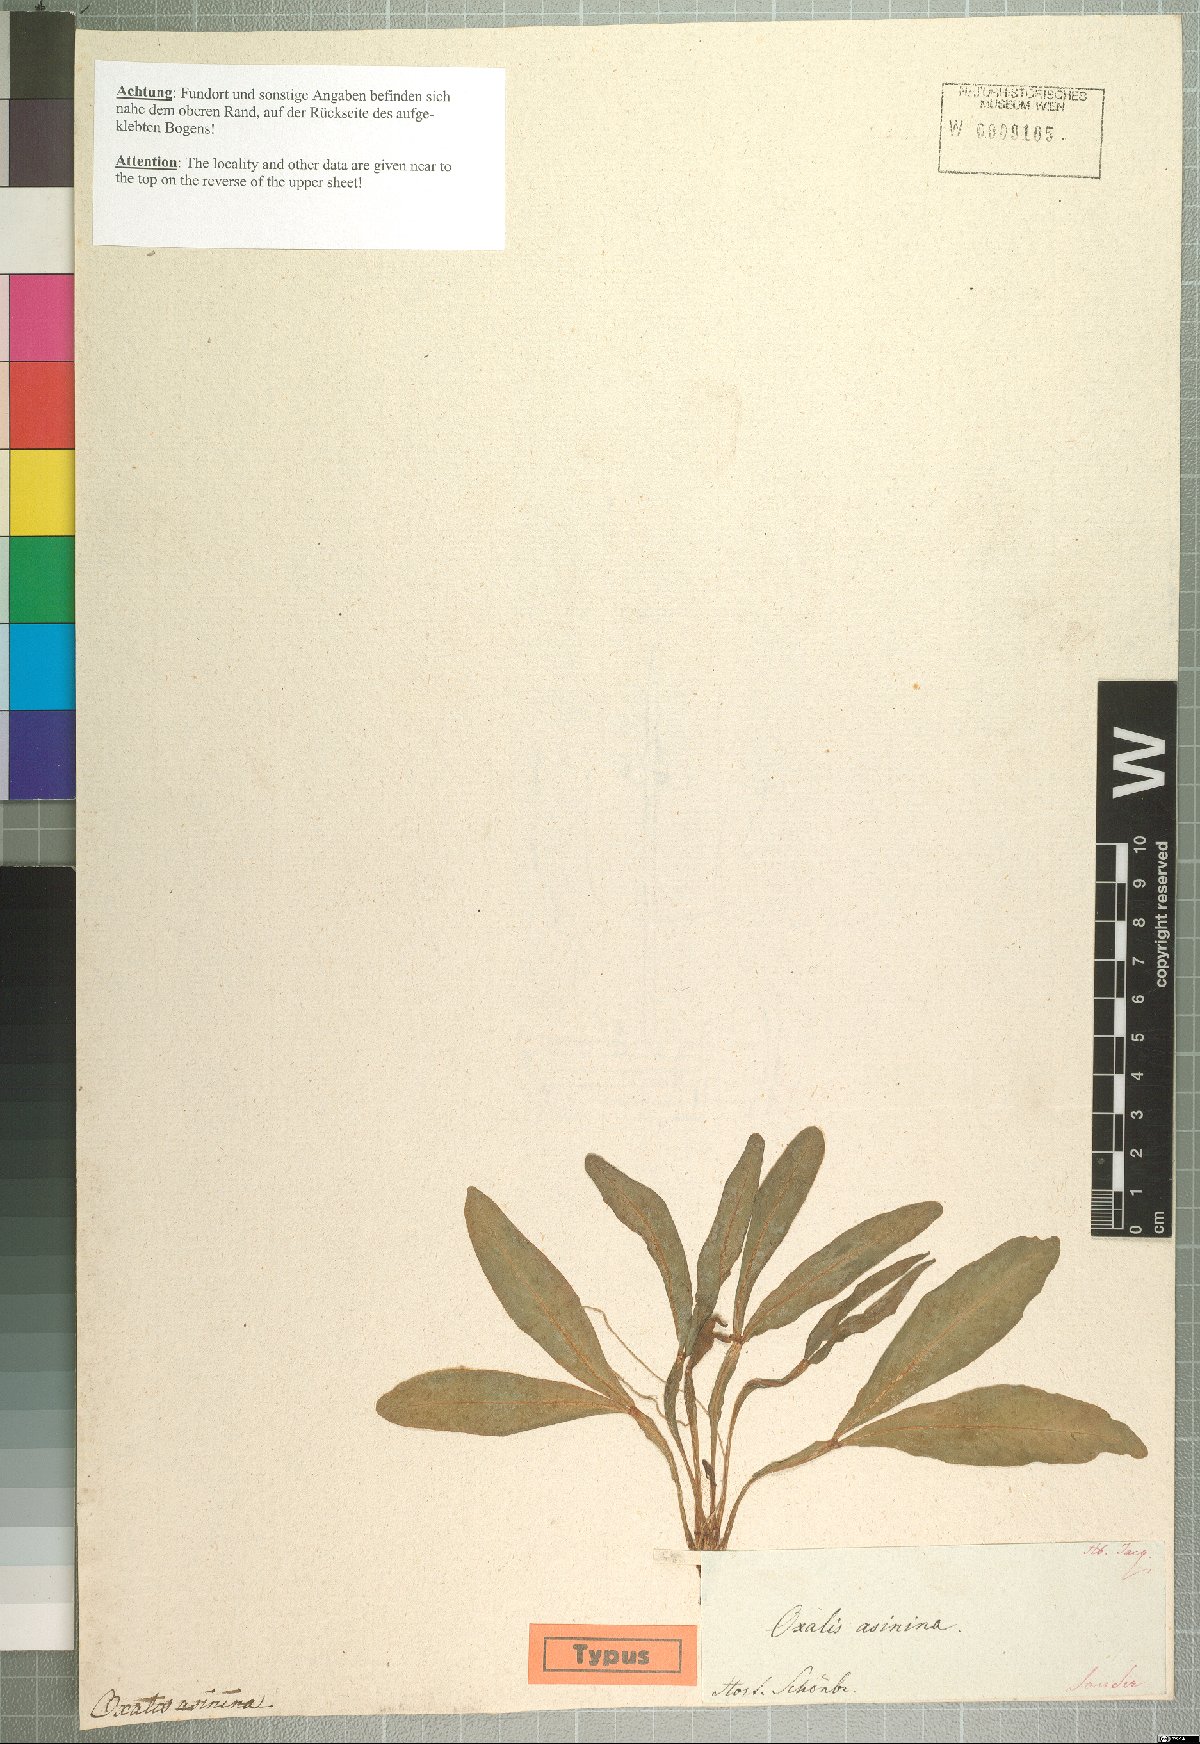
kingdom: Plantae
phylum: Tracheophyta
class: Magnoliopsida
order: Oxalidales
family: Oxalidaceae
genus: Oxalis
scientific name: Oxalis flava
